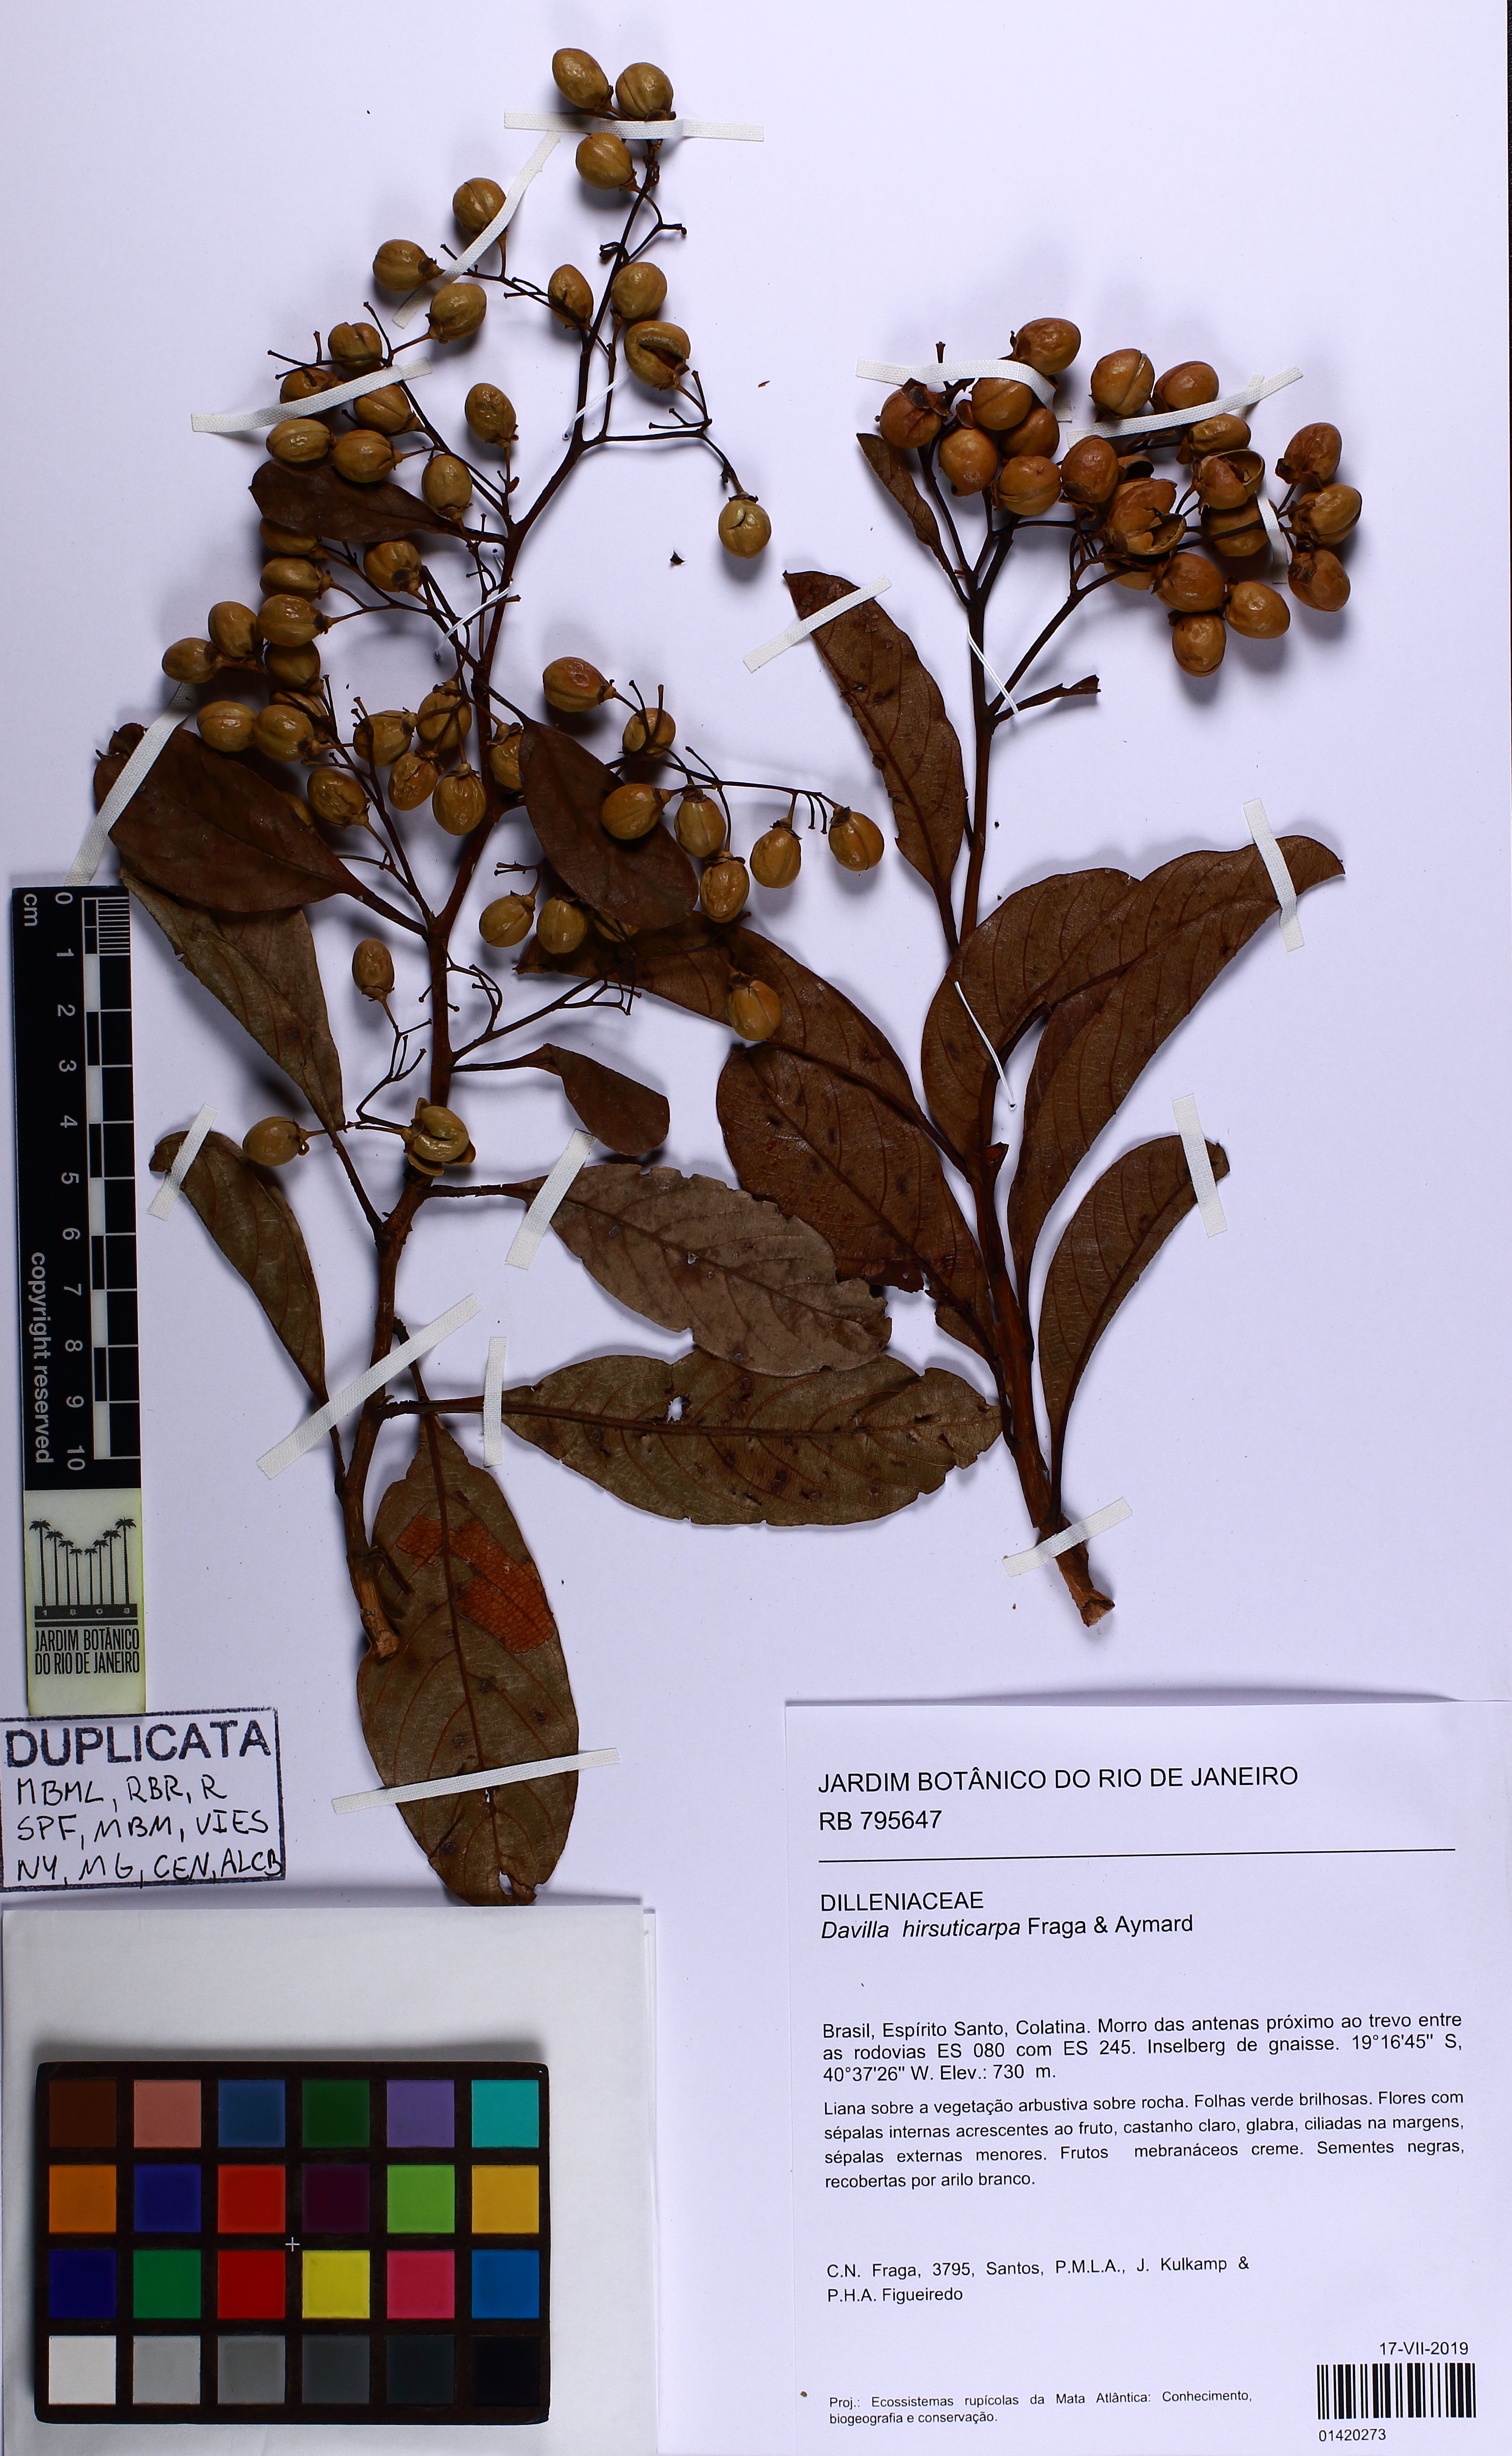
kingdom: Plantae
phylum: Tracheophyta
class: Magnoliopsida
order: Dilleniales
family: Dilleniaceae
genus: Davilla
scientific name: Davilla hirsuticarpa
